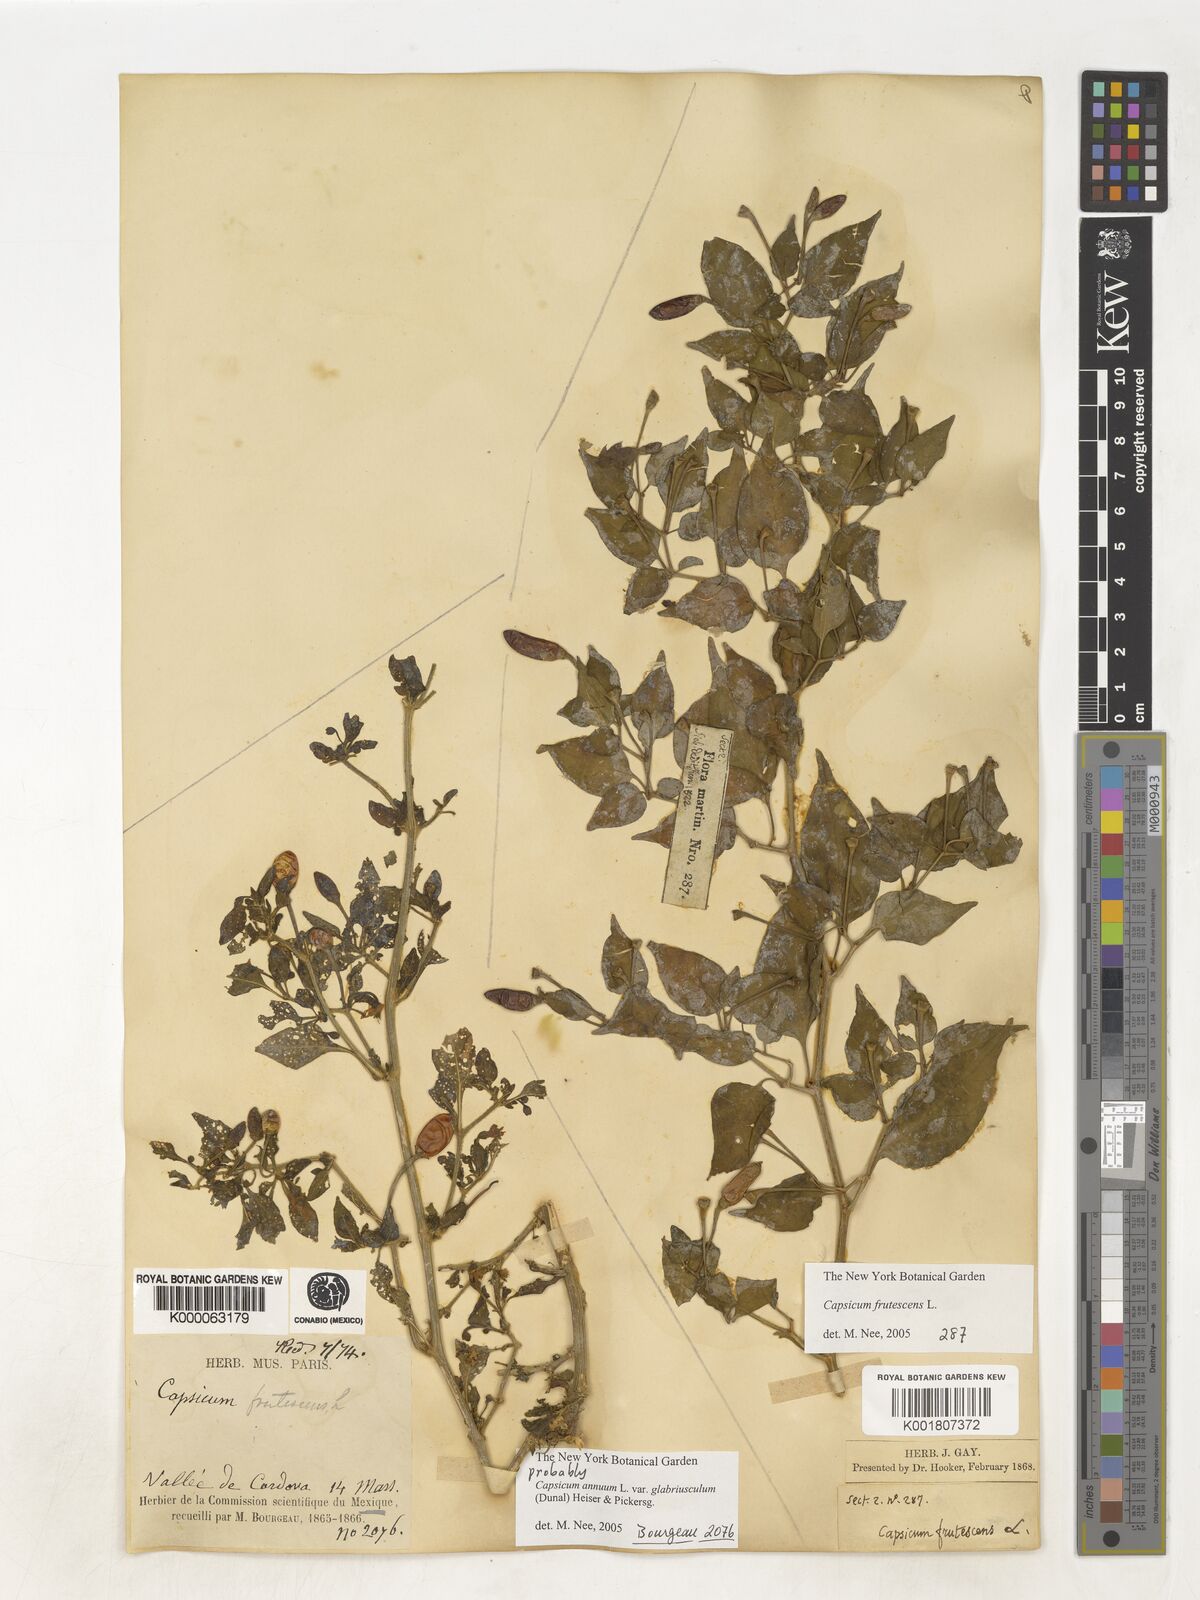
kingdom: Plantae
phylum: Tracheophyta
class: Magnoliopsida
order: Solanales
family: Solanaceae
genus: Capsicum
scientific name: Capsicum frutescens
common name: Bird pepper
